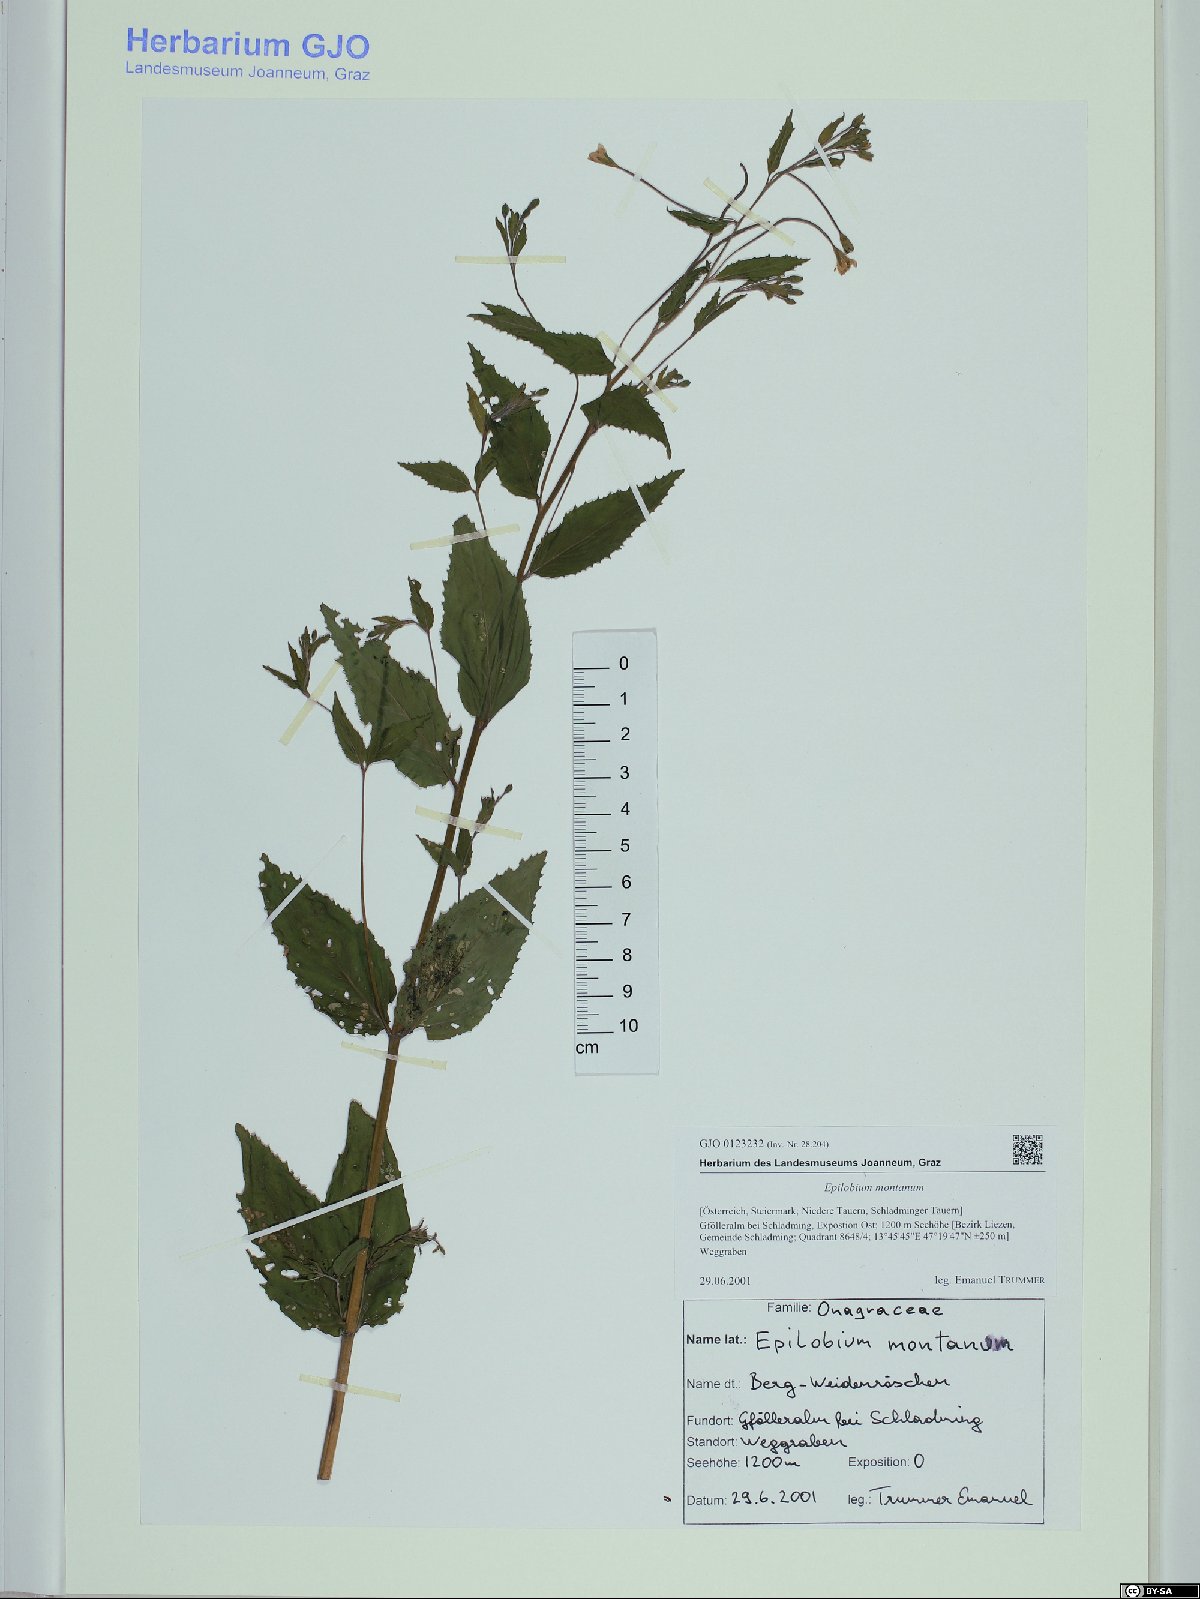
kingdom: Plantae
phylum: Tracheophyta
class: Magnoliopsida
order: Myrtales
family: Onagraceae
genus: Epilobium
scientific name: Epilobium montanum
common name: Broad-leaved willowherb
